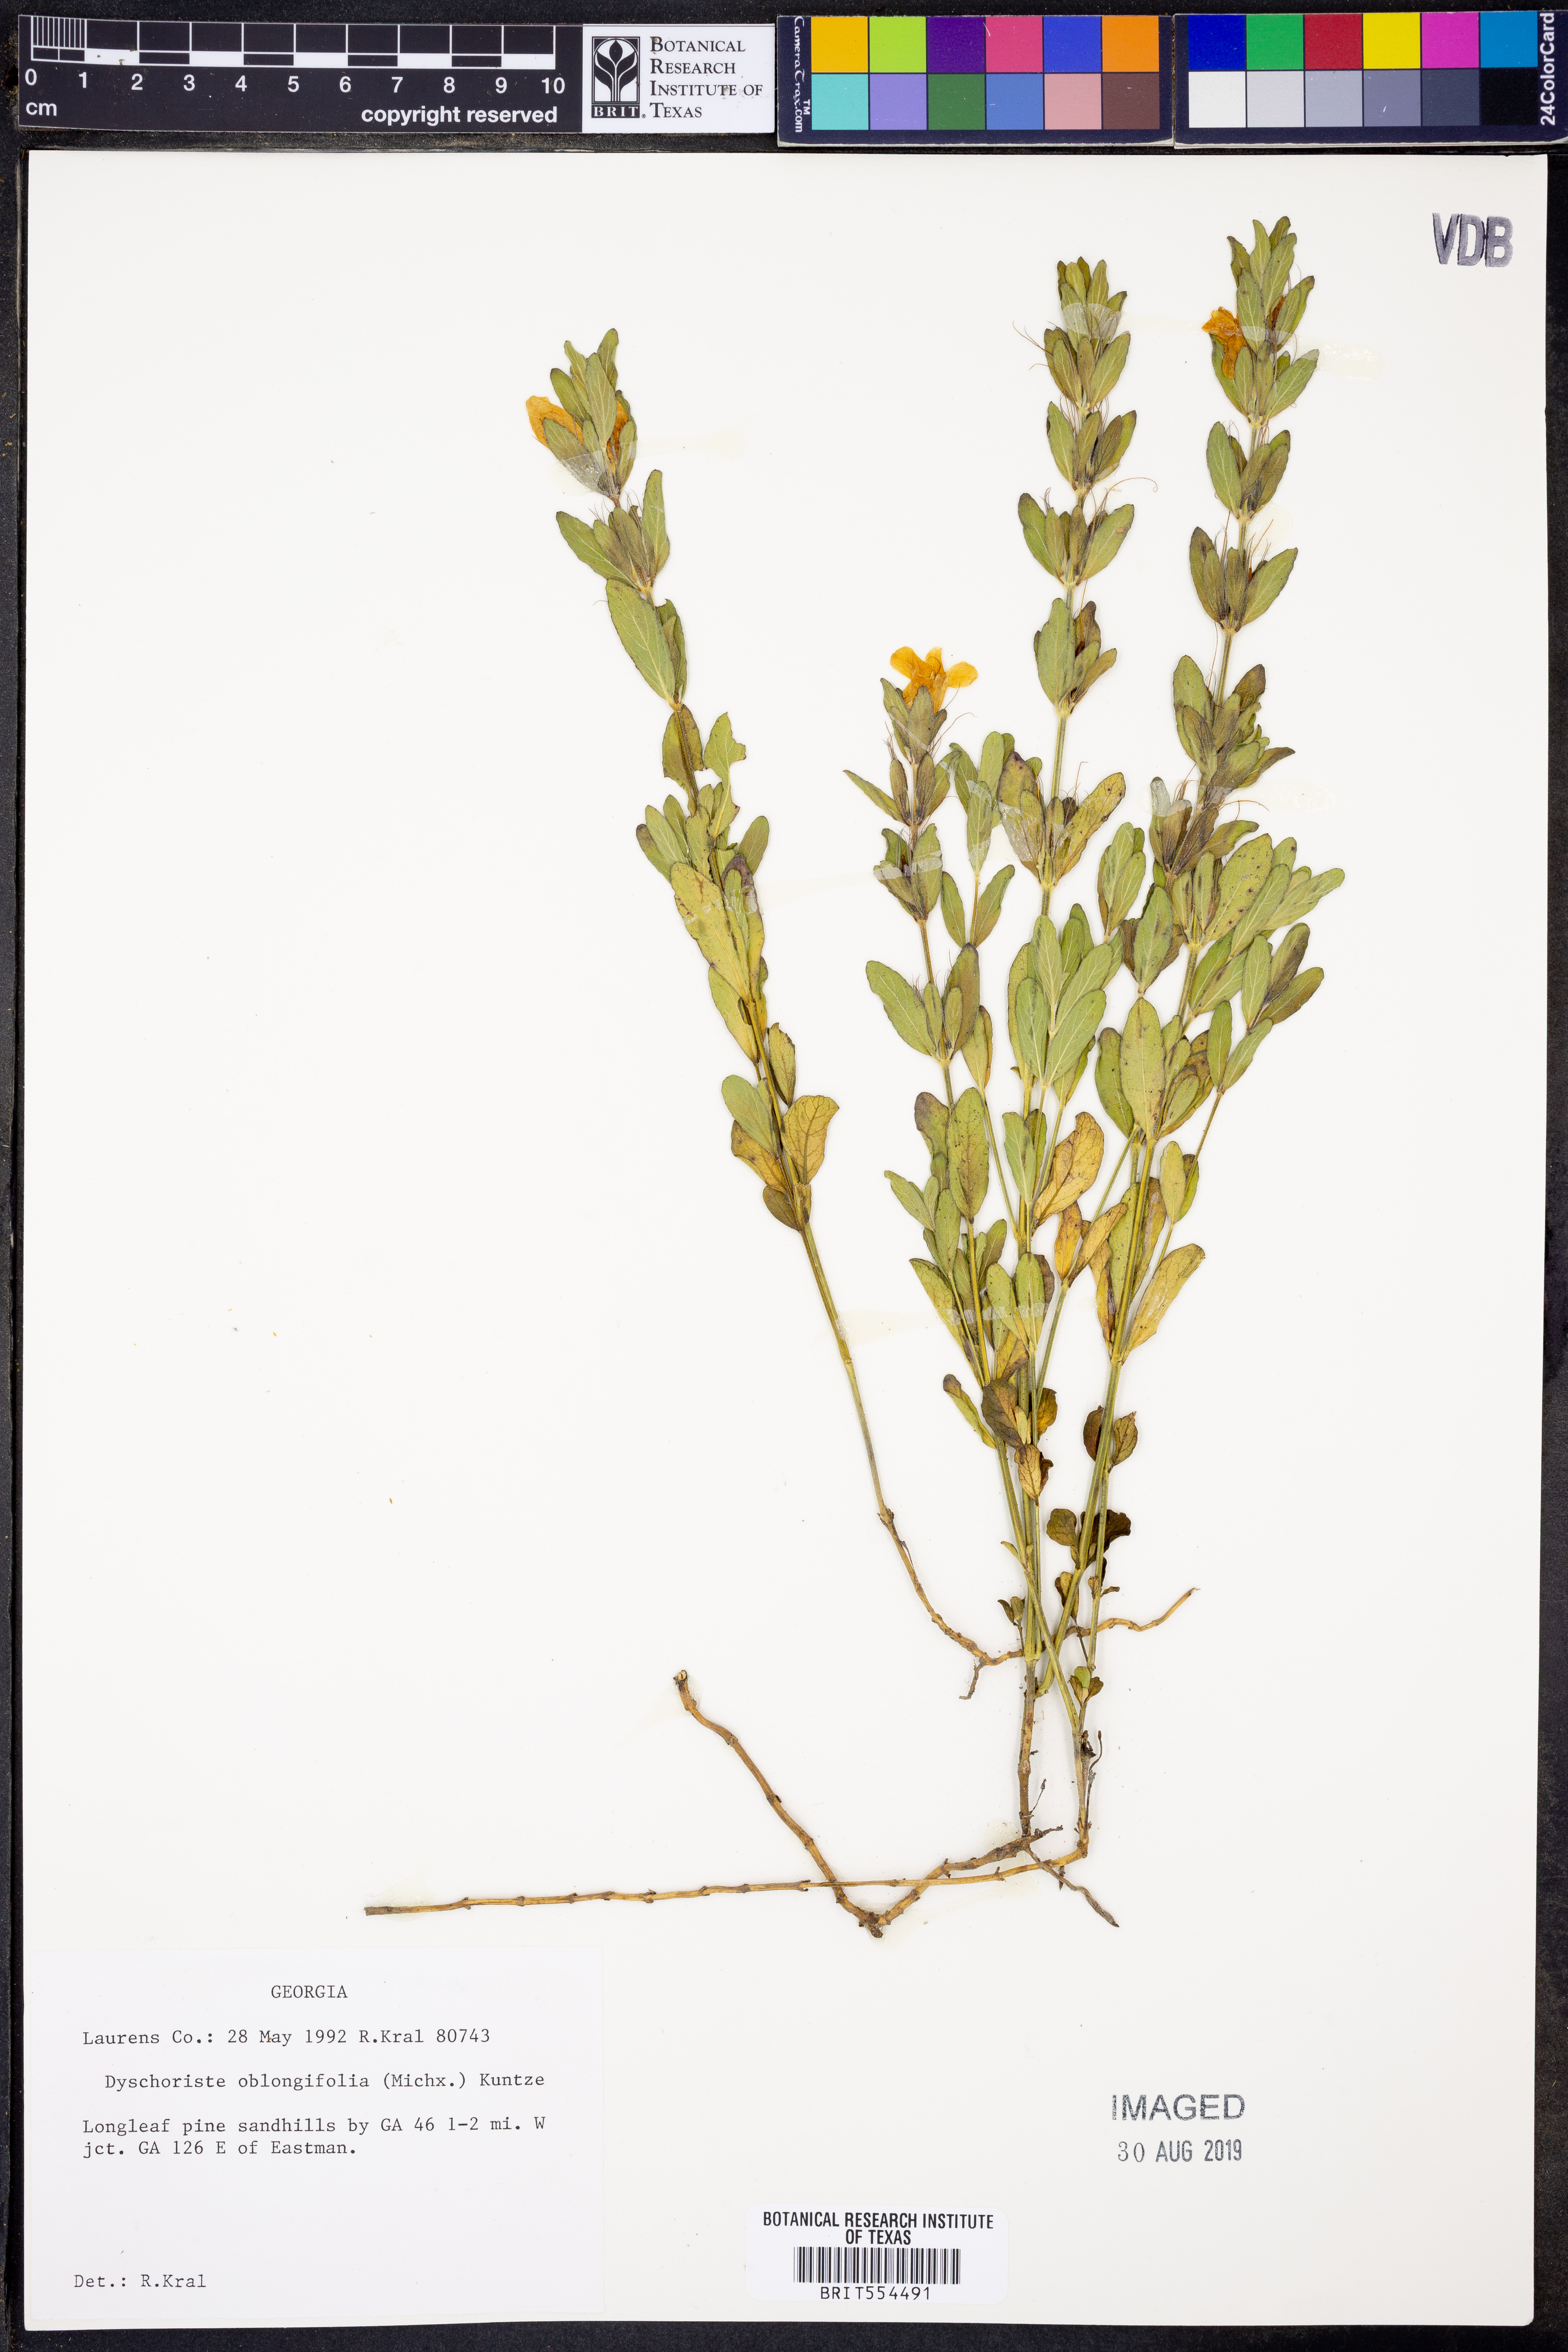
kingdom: Plantae
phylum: Tracheophyta
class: Magnoliopsida
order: Lamiales
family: Acanthaceae
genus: Dyschoriste
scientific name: Dyschoriste oblongifolia
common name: Blue twinflower
